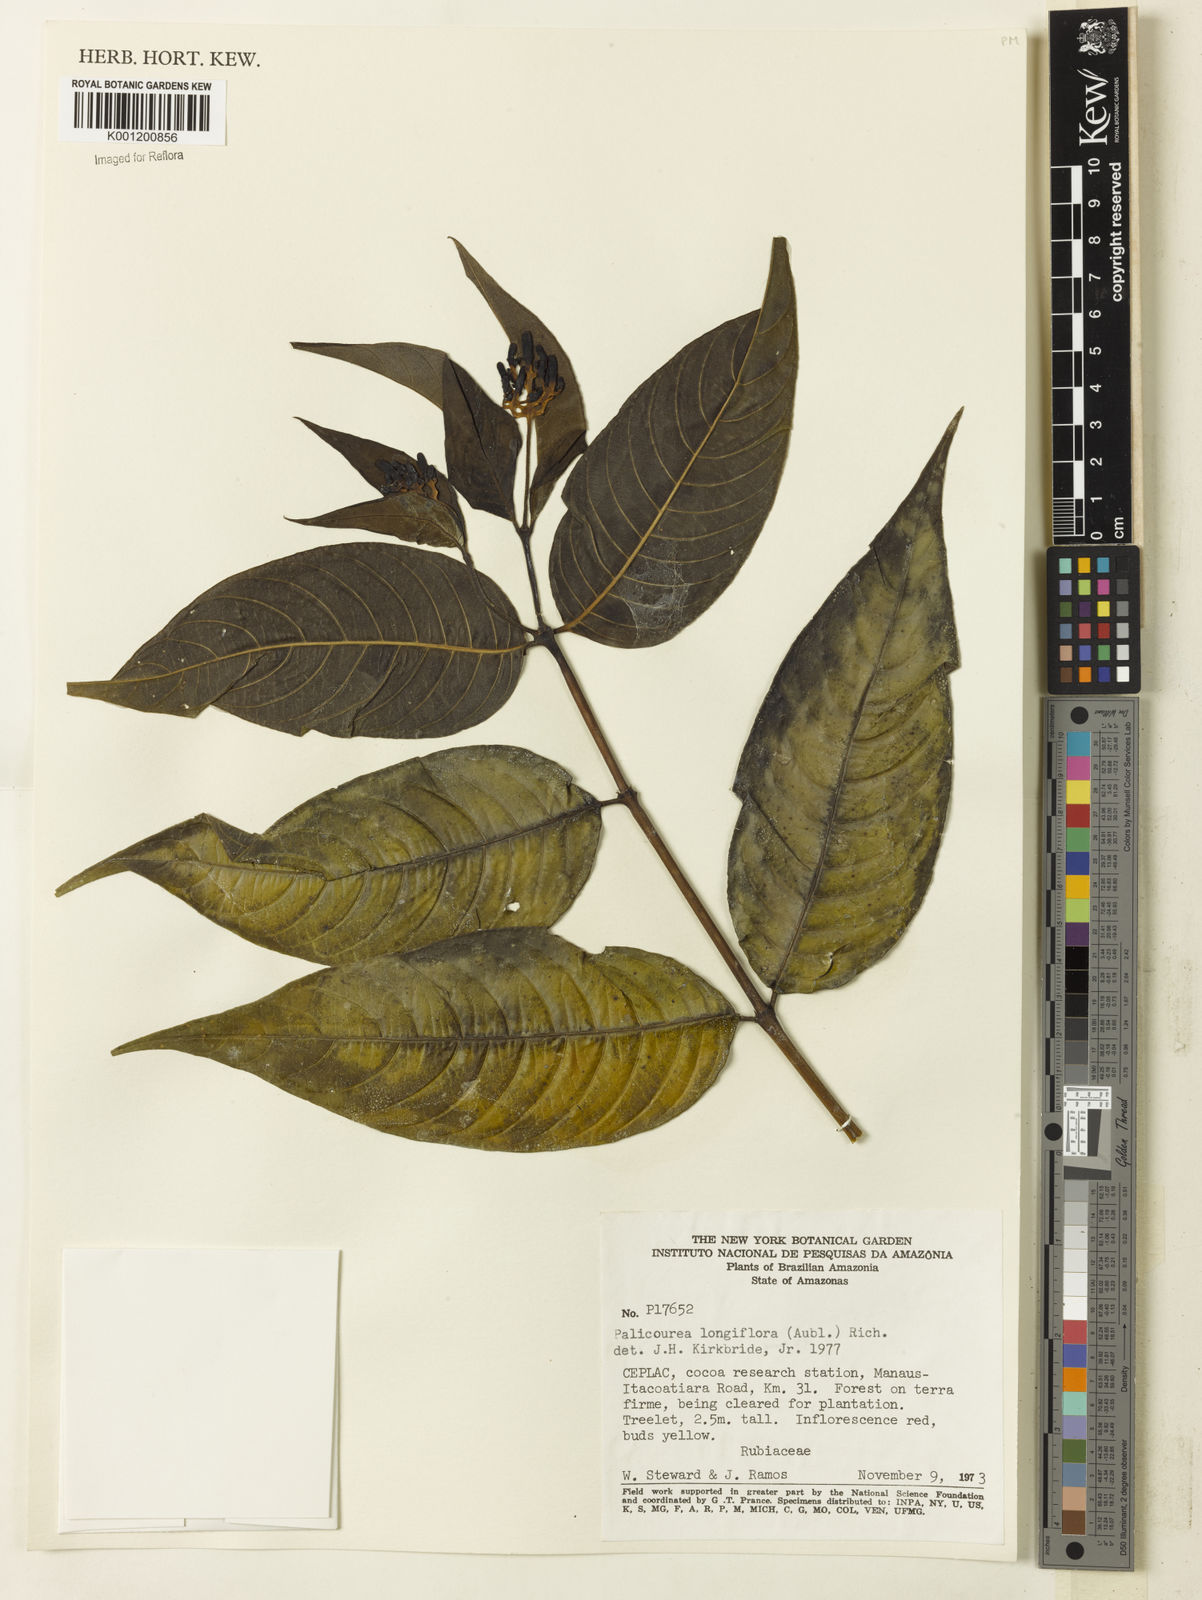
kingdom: Plantae
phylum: Tracheophyta
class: Magnoliopsida
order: Gentianales
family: Rubiaceae
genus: Palicourea
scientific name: Palicourea longiflora
